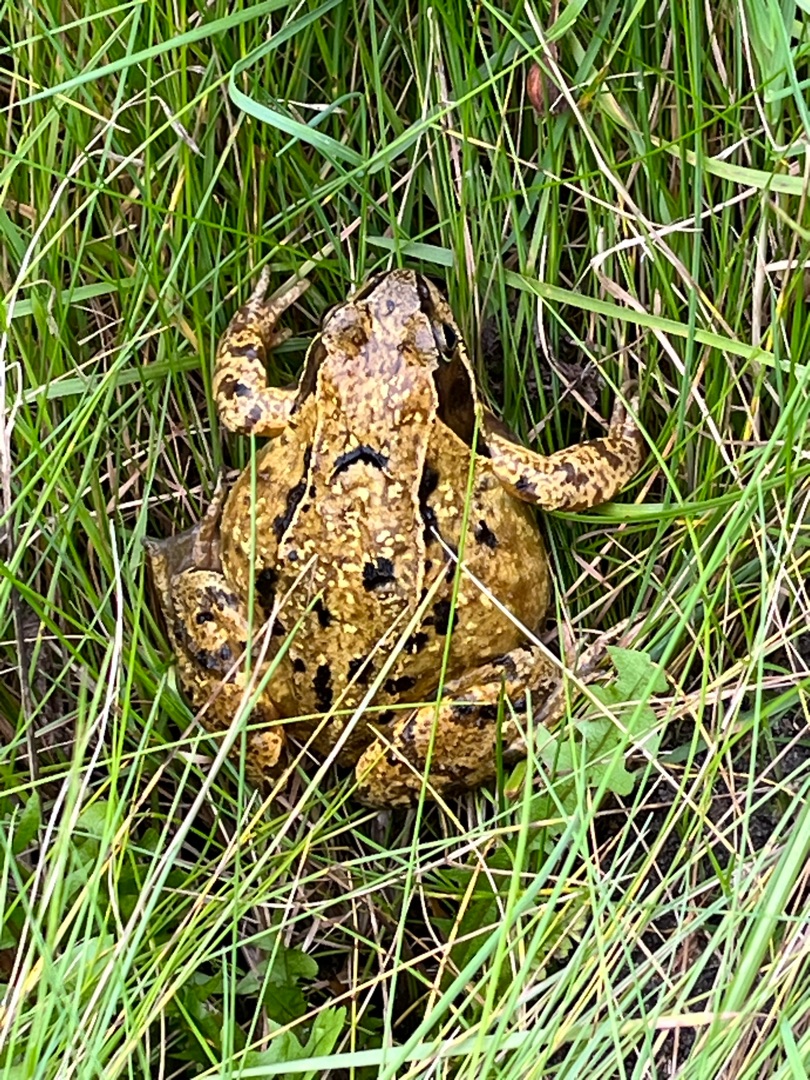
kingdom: Animalia
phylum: Chordata
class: Amphibia
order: Anura
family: Ranidae
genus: Rana
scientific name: Rana temporaria
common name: Butsnudet frø
